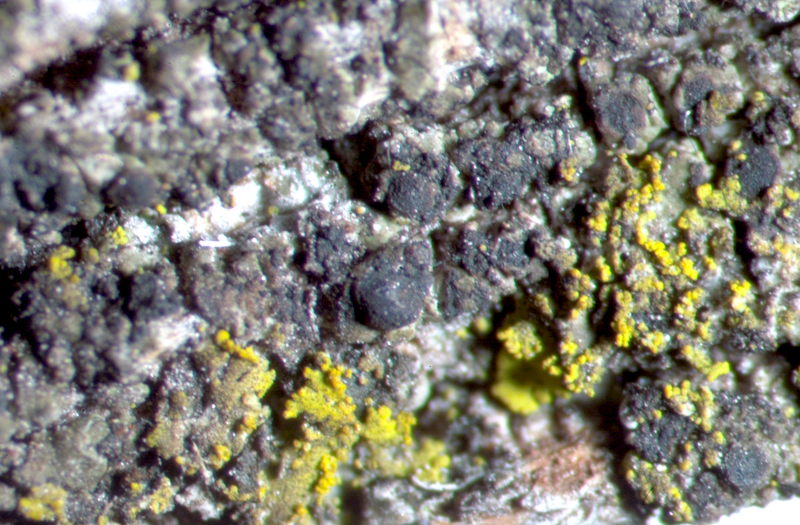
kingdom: Fungi
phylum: Ascomycota
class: Lecanoromycetes
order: Caliciales
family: Physciaceae
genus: Rinodina
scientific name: Rinodina
